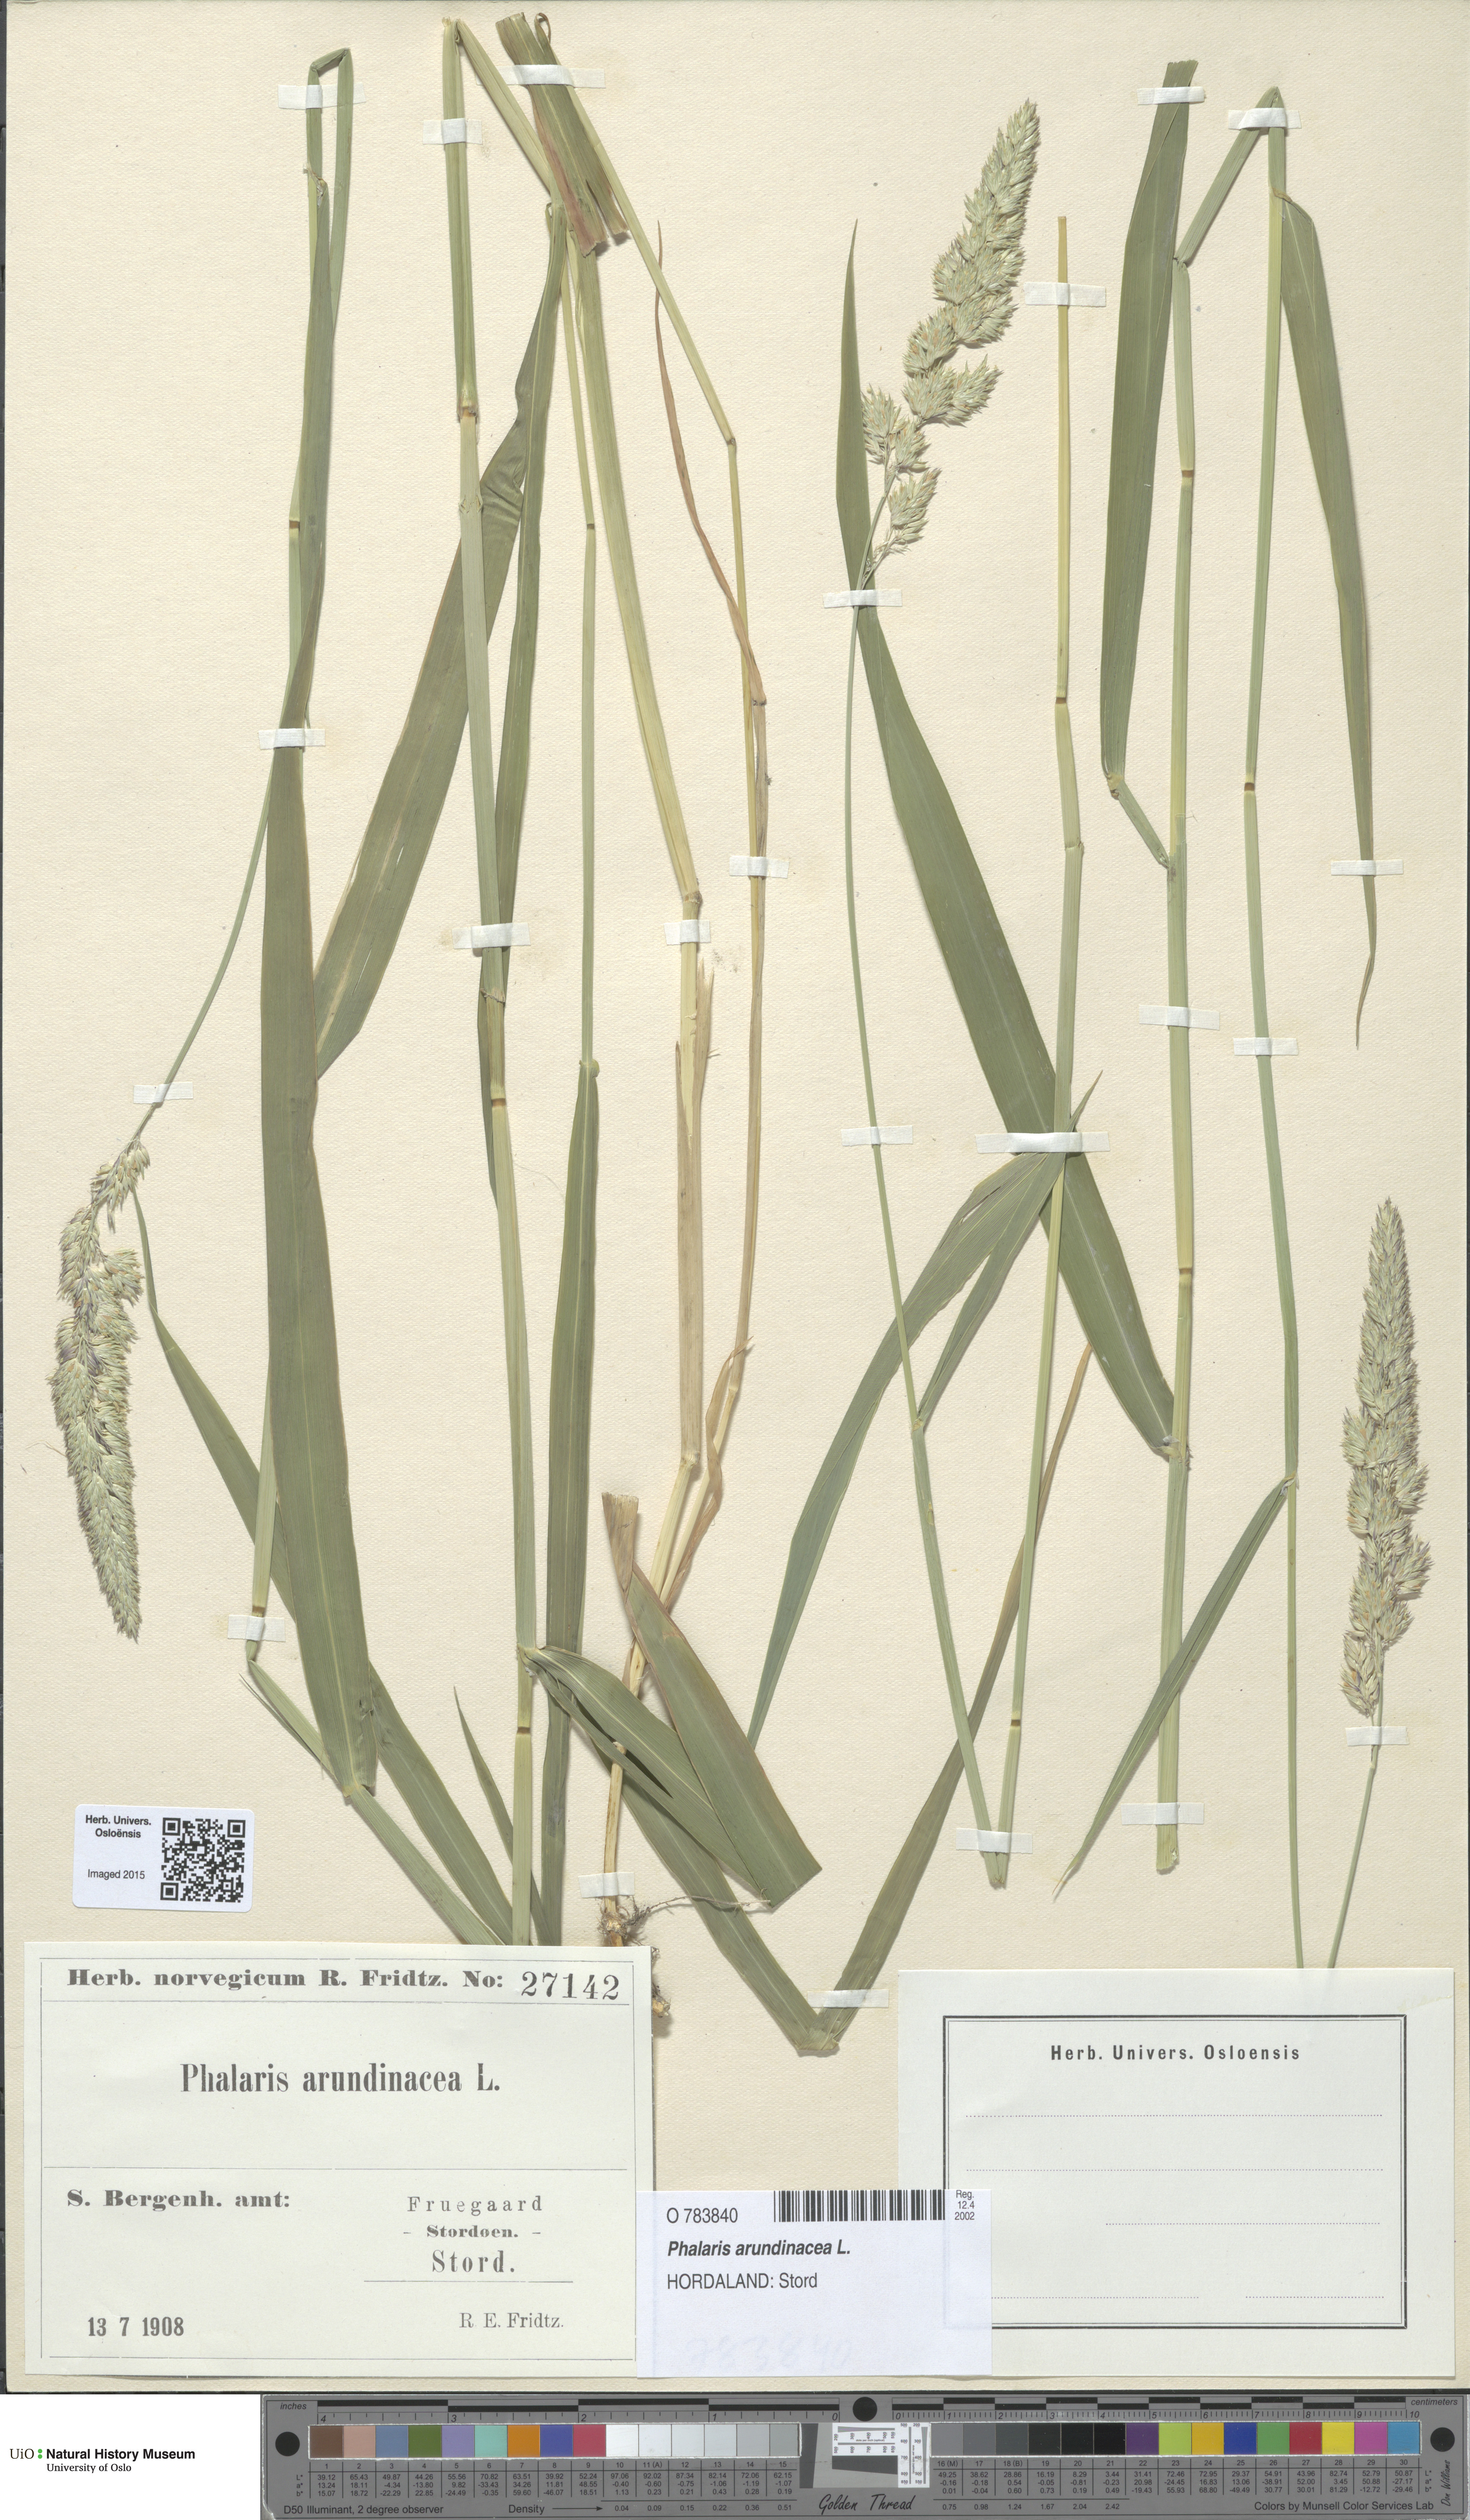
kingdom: Plantae
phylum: Tracheophyta
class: Liliopsida
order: Poales
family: Poaceae
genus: Phalaris
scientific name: Phalaris arundinacea
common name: Reed canary-grass
